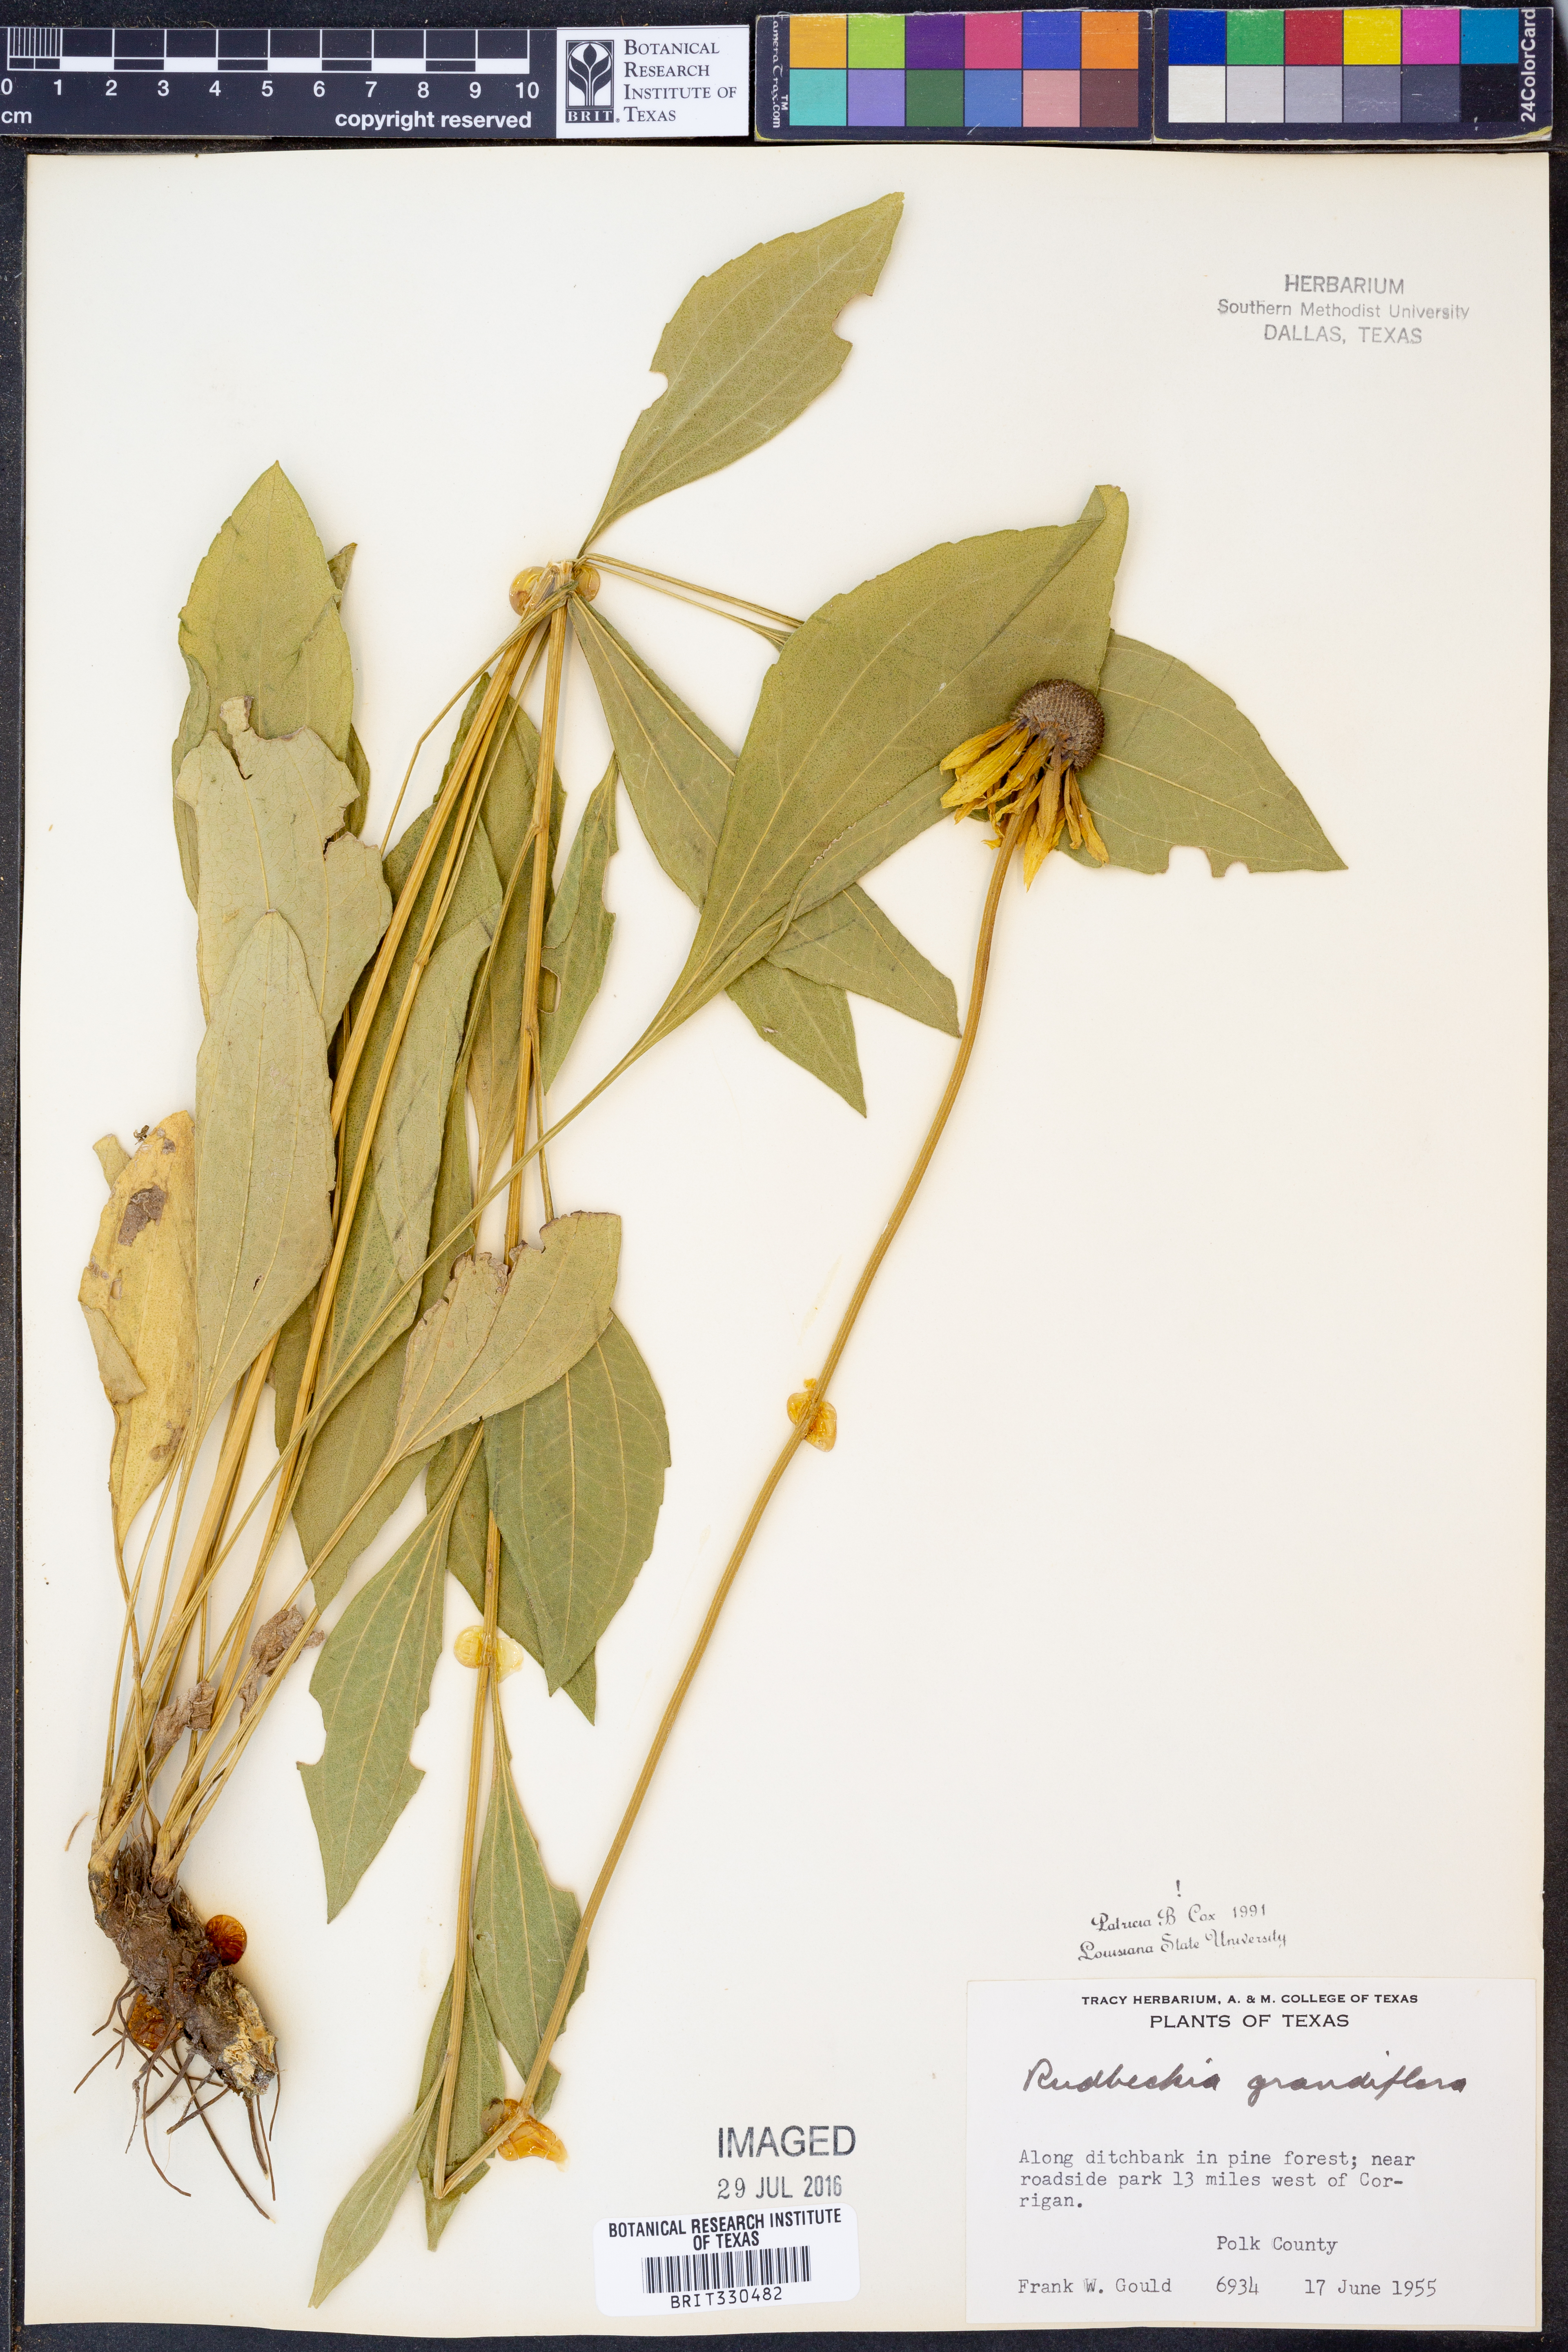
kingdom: Plantae
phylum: Tracheophyta
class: Magnoliopsida
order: Asterales
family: Asteraceae
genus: Rudbeckia
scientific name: Rudbeckia grandiflora
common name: Large-flowered coneflower
